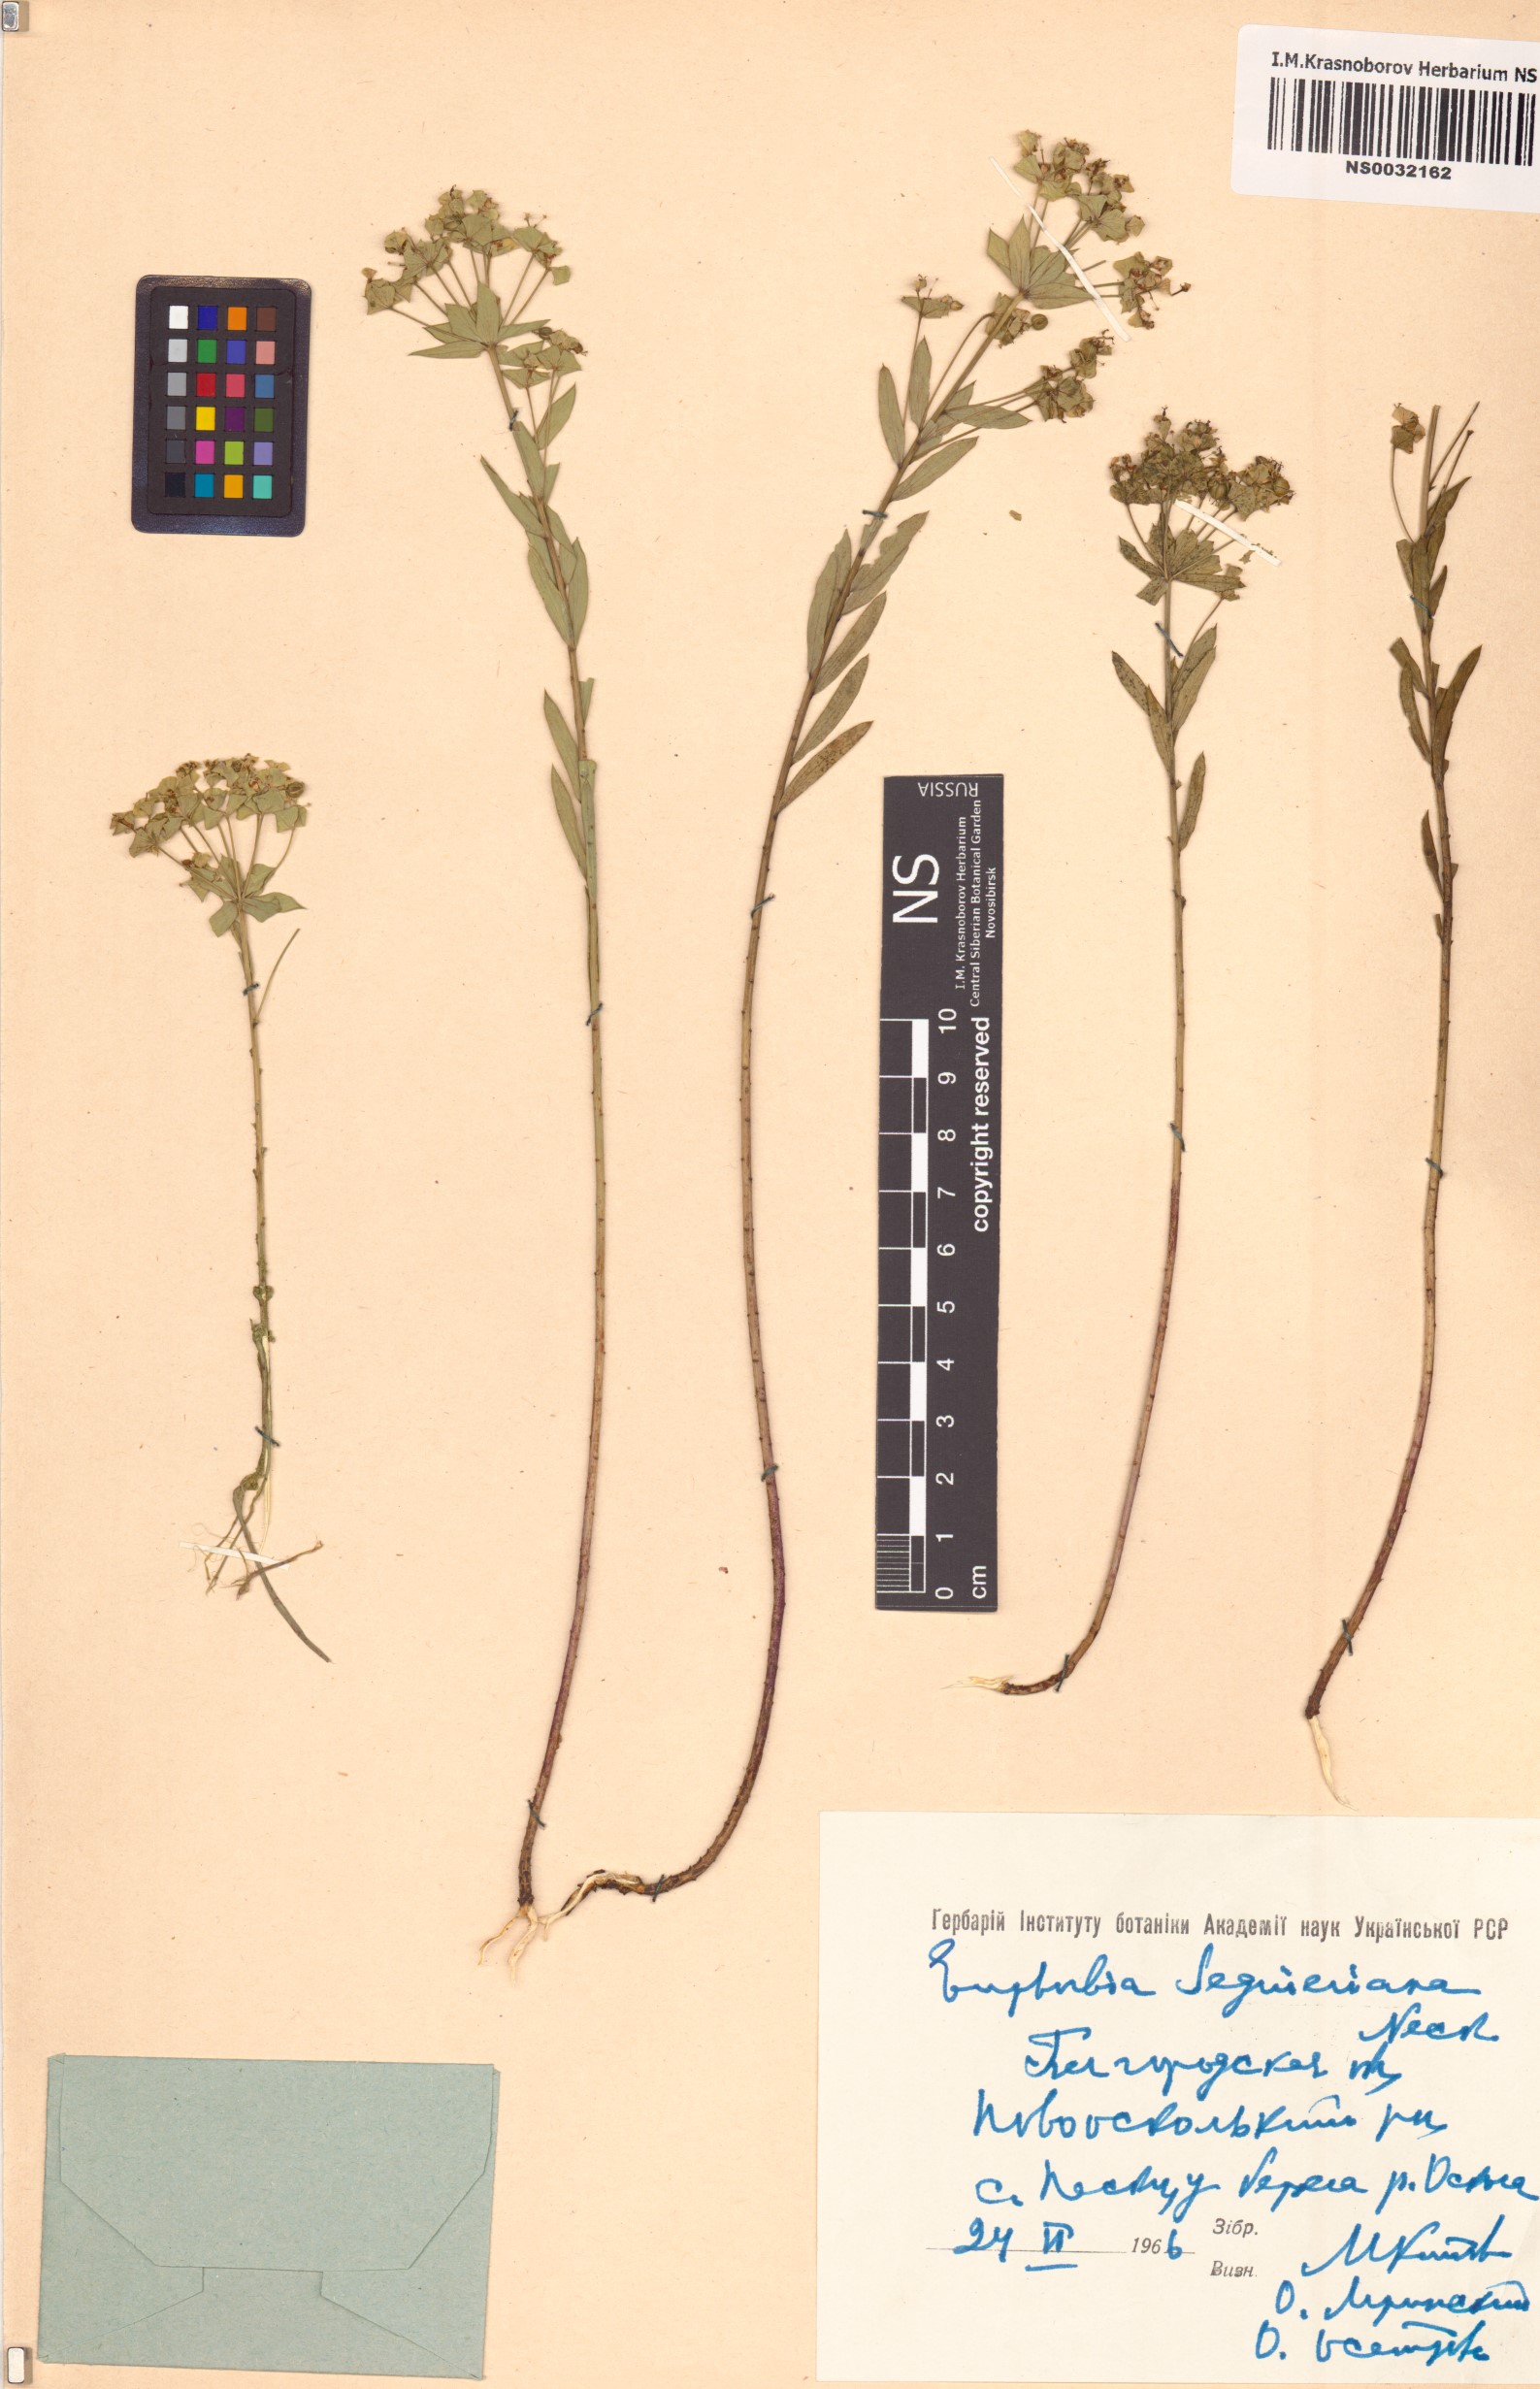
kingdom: Plantae
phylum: Tracheophyta
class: Magnoliopsida
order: Malpighiales
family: Euphorbiaceae
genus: Euphorbia
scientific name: Euphorbia seguieriana
